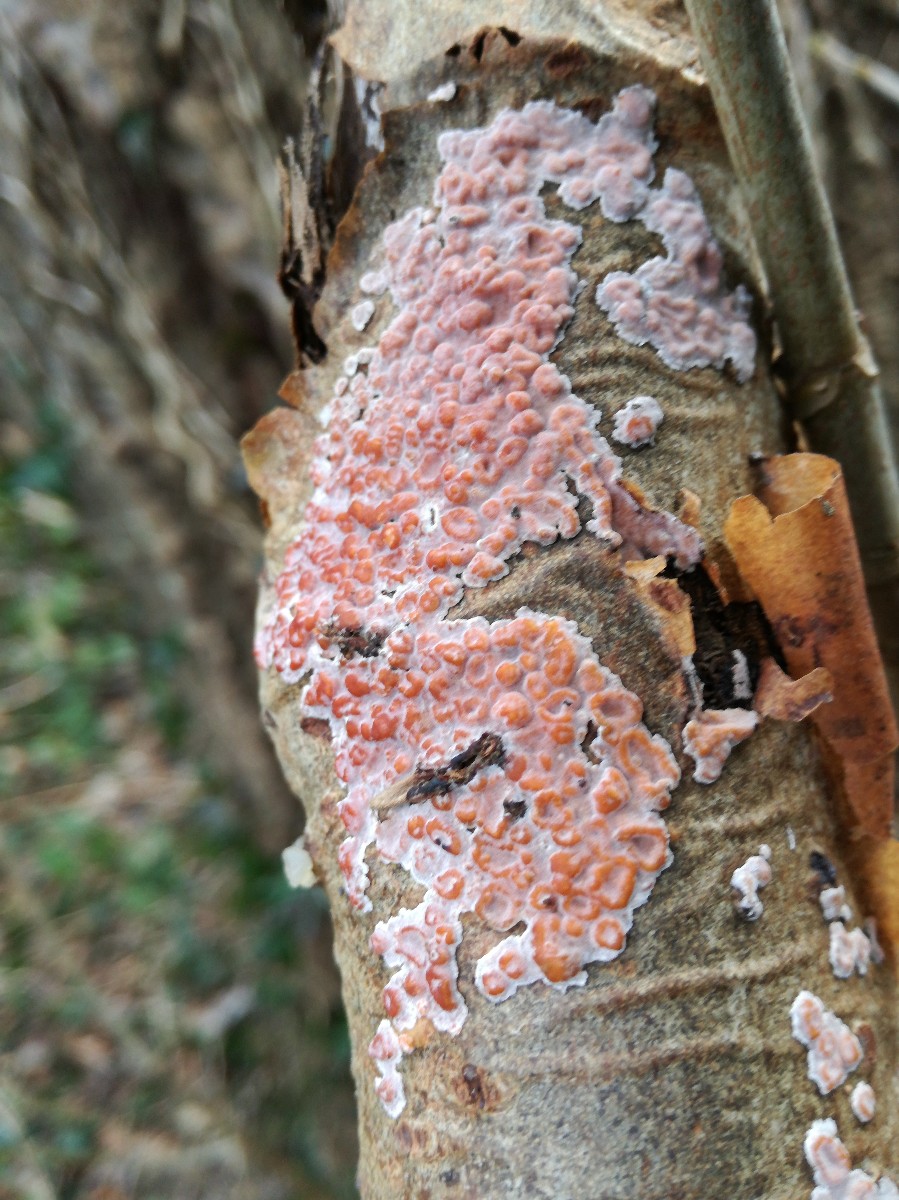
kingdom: Fungi
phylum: Basidiomycota
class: Agaricomycetes
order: Russulales
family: Peniophoraceae
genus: Peniophora
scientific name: Peniophora polygonia
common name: polygon-voksskind
